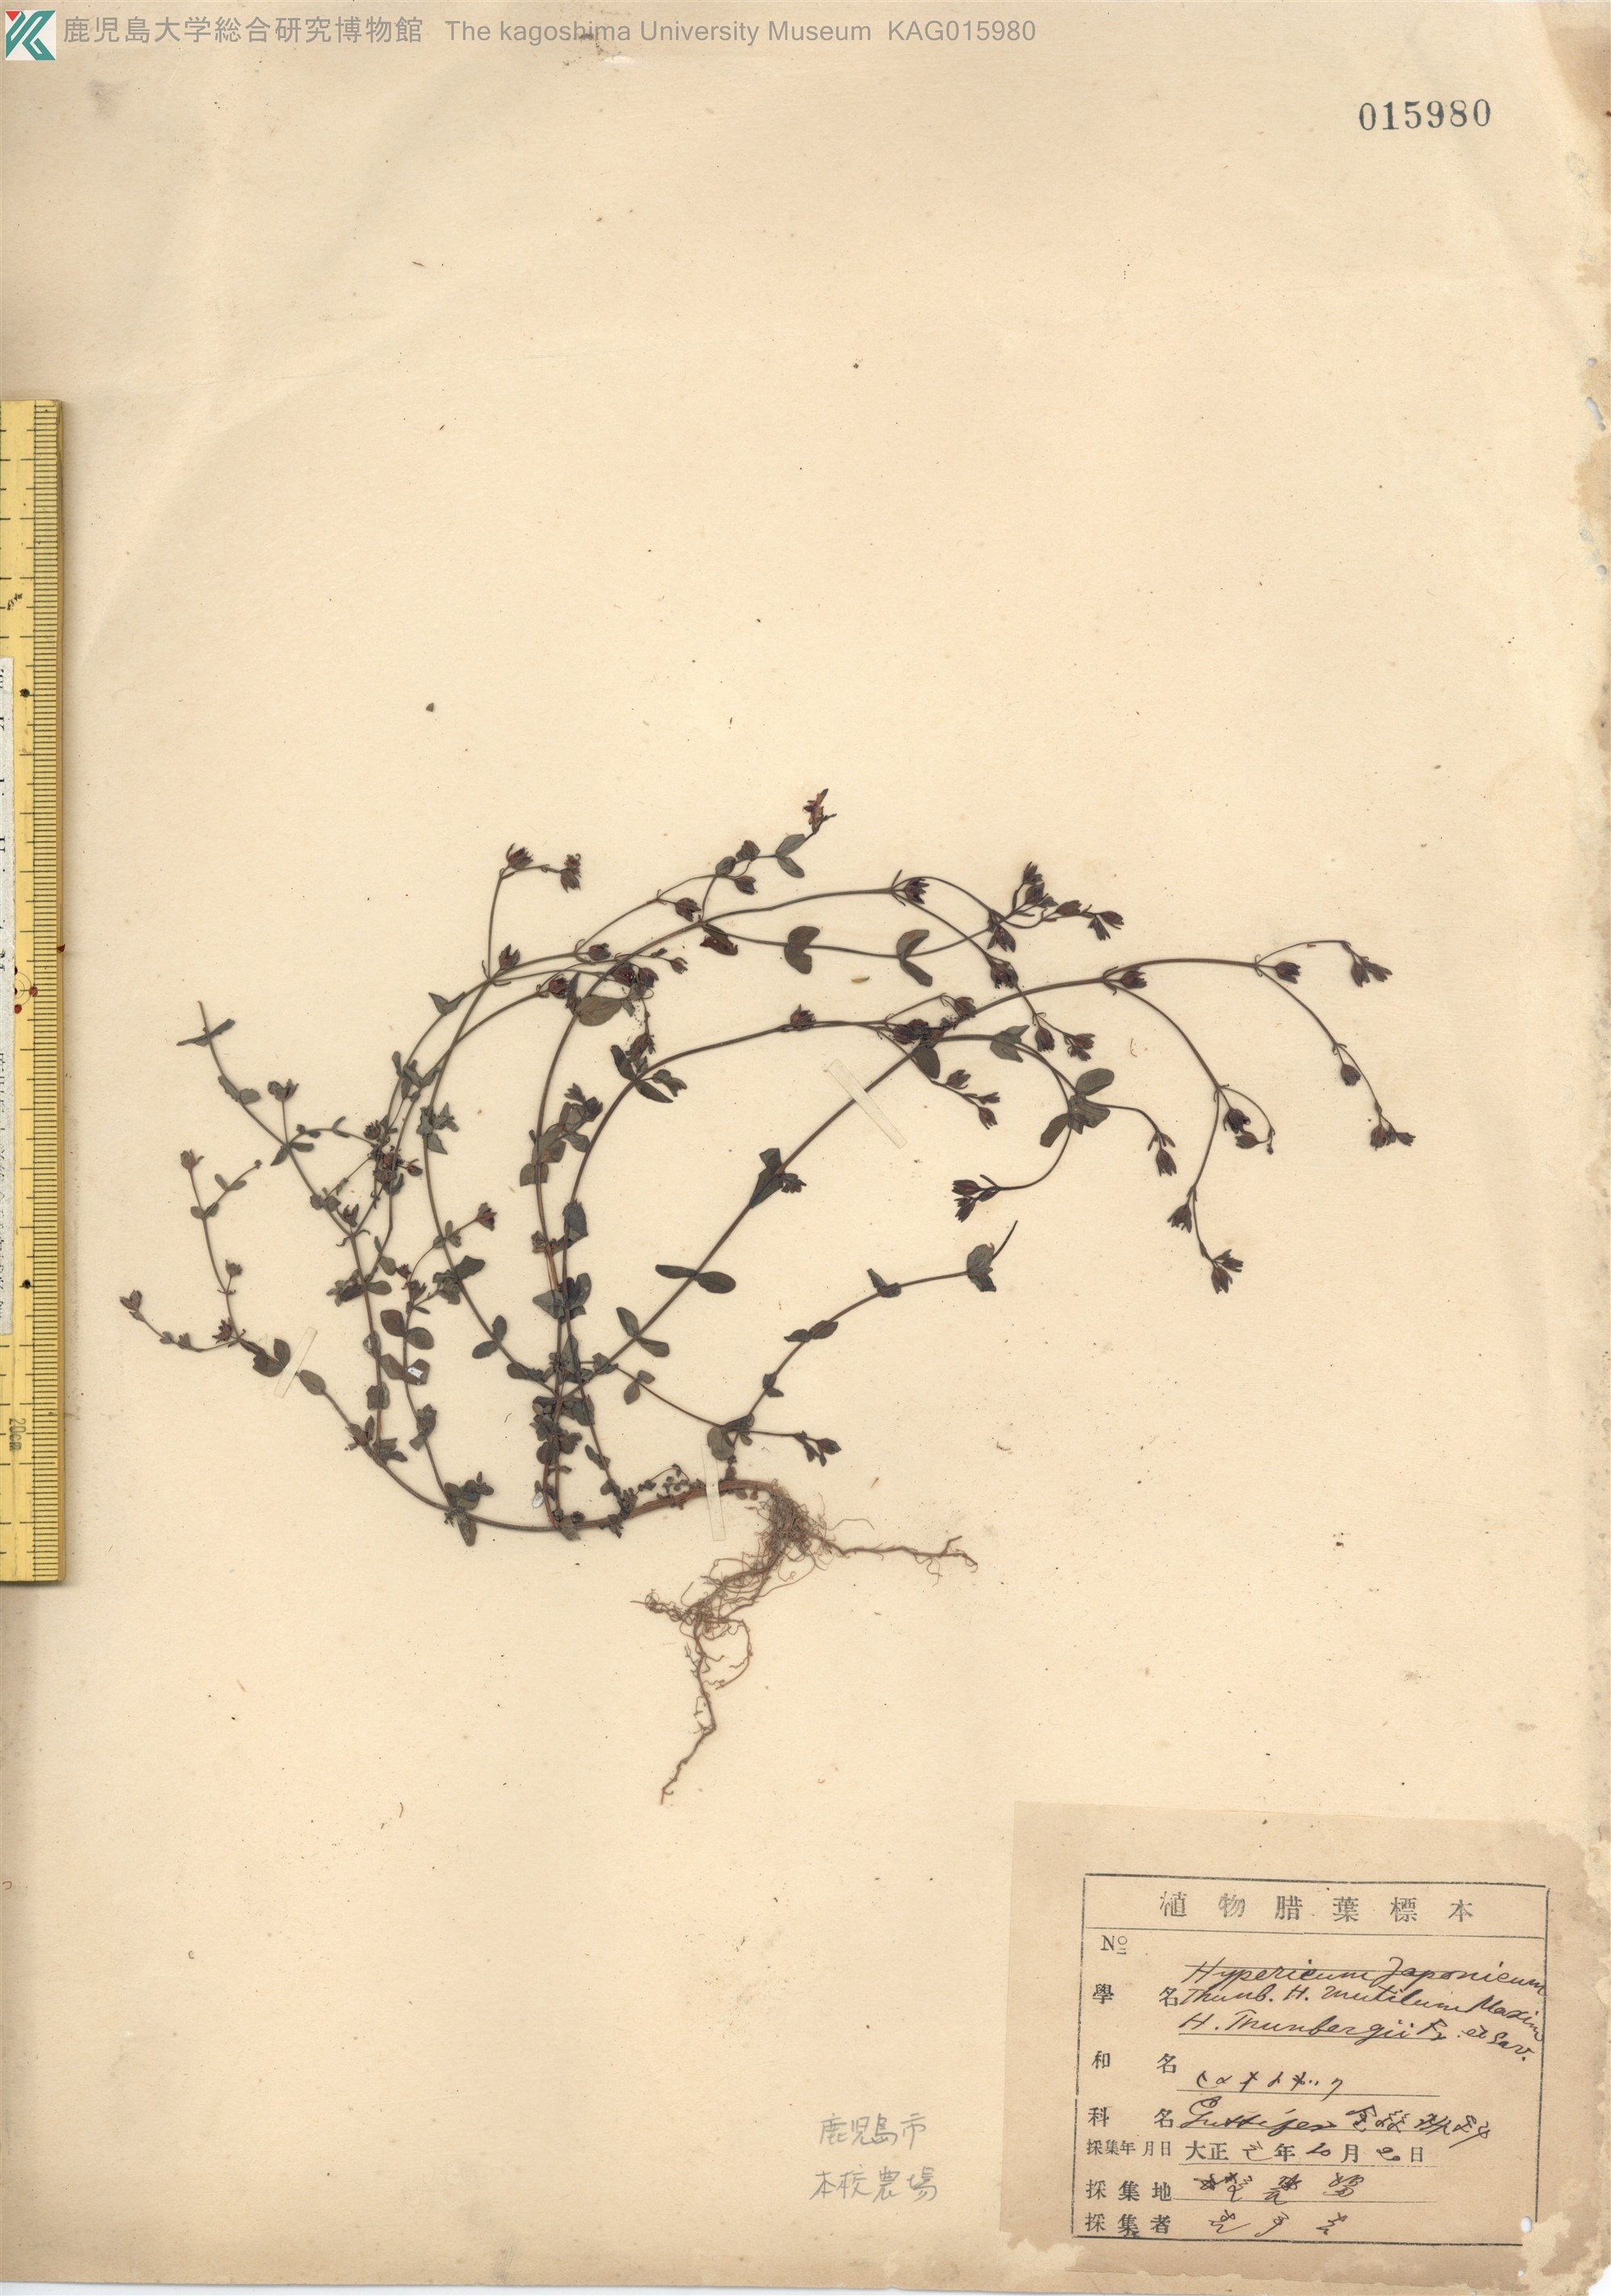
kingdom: Plantae
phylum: Tracheophyta
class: Magnoliopsida
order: Malpighiales
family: Hypericaceae
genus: Hypericum
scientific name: Hypericum japonicum
